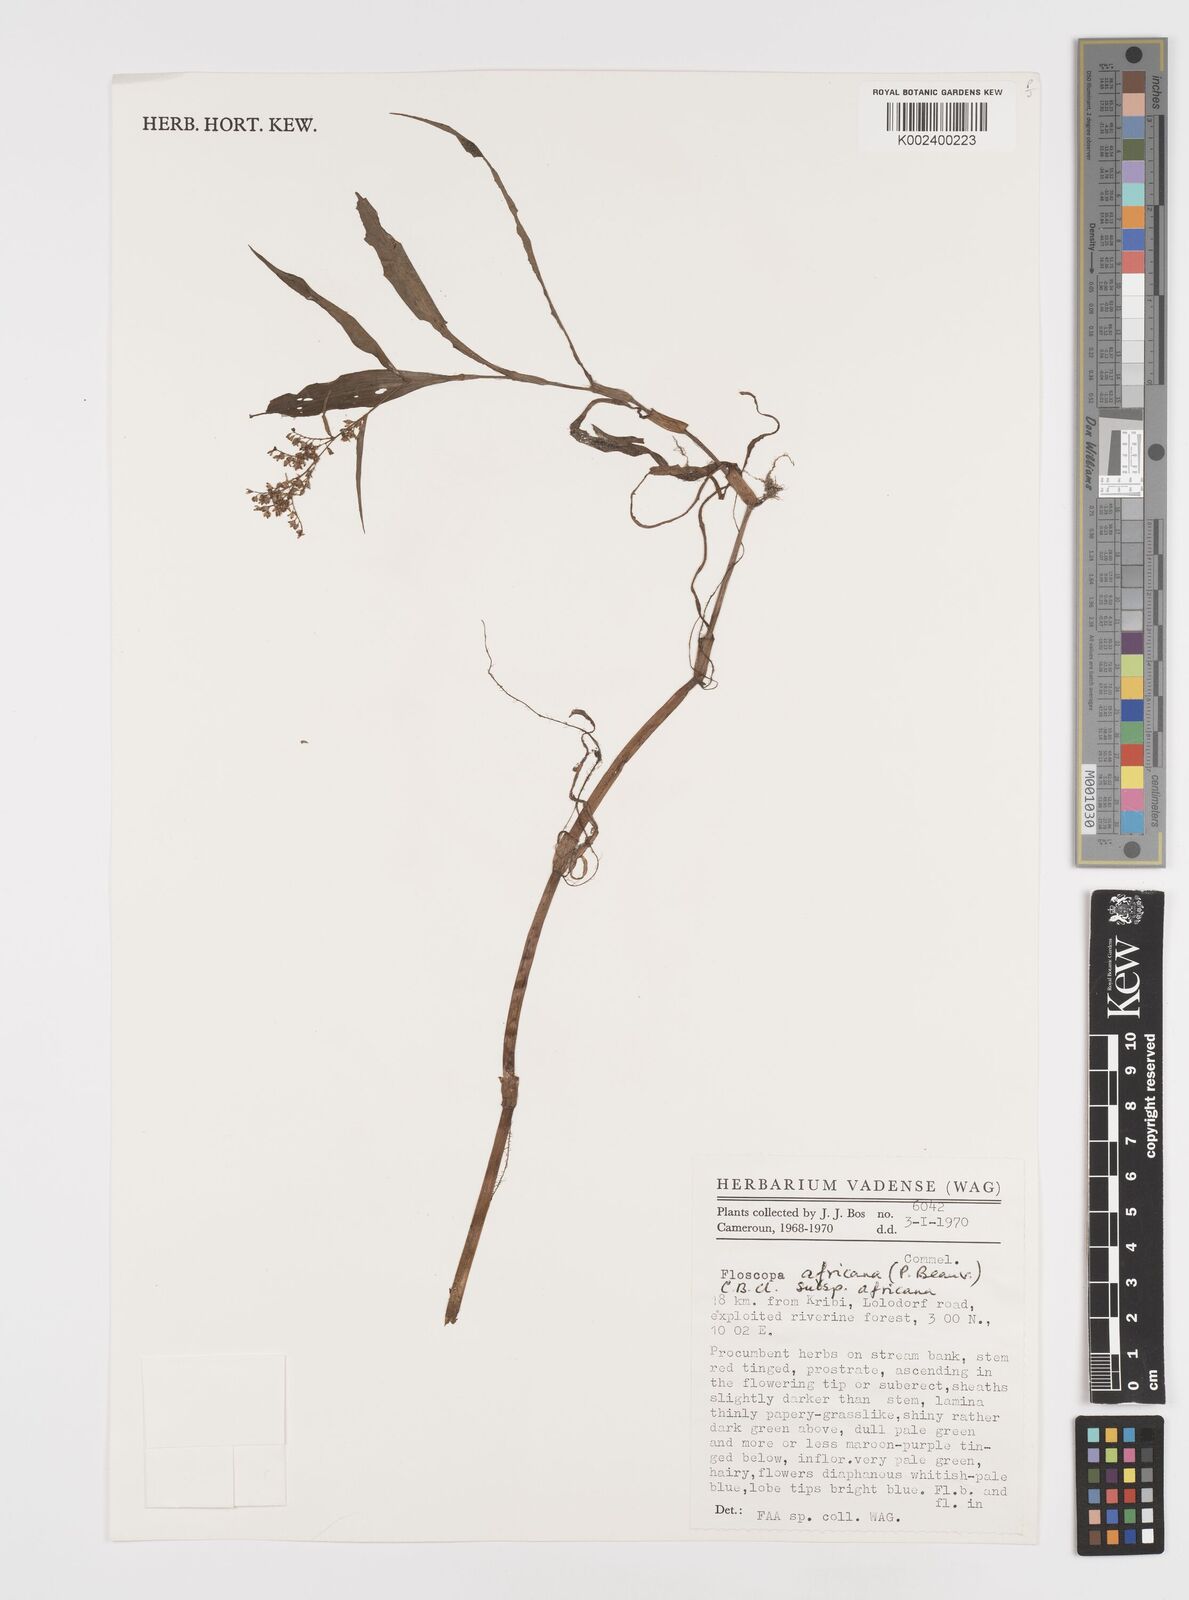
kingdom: Plantae
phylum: Tracheophyta
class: Liliopsida
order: Commelinales
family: Commelinaceae
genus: Floscopa
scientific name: Floscopa africana
